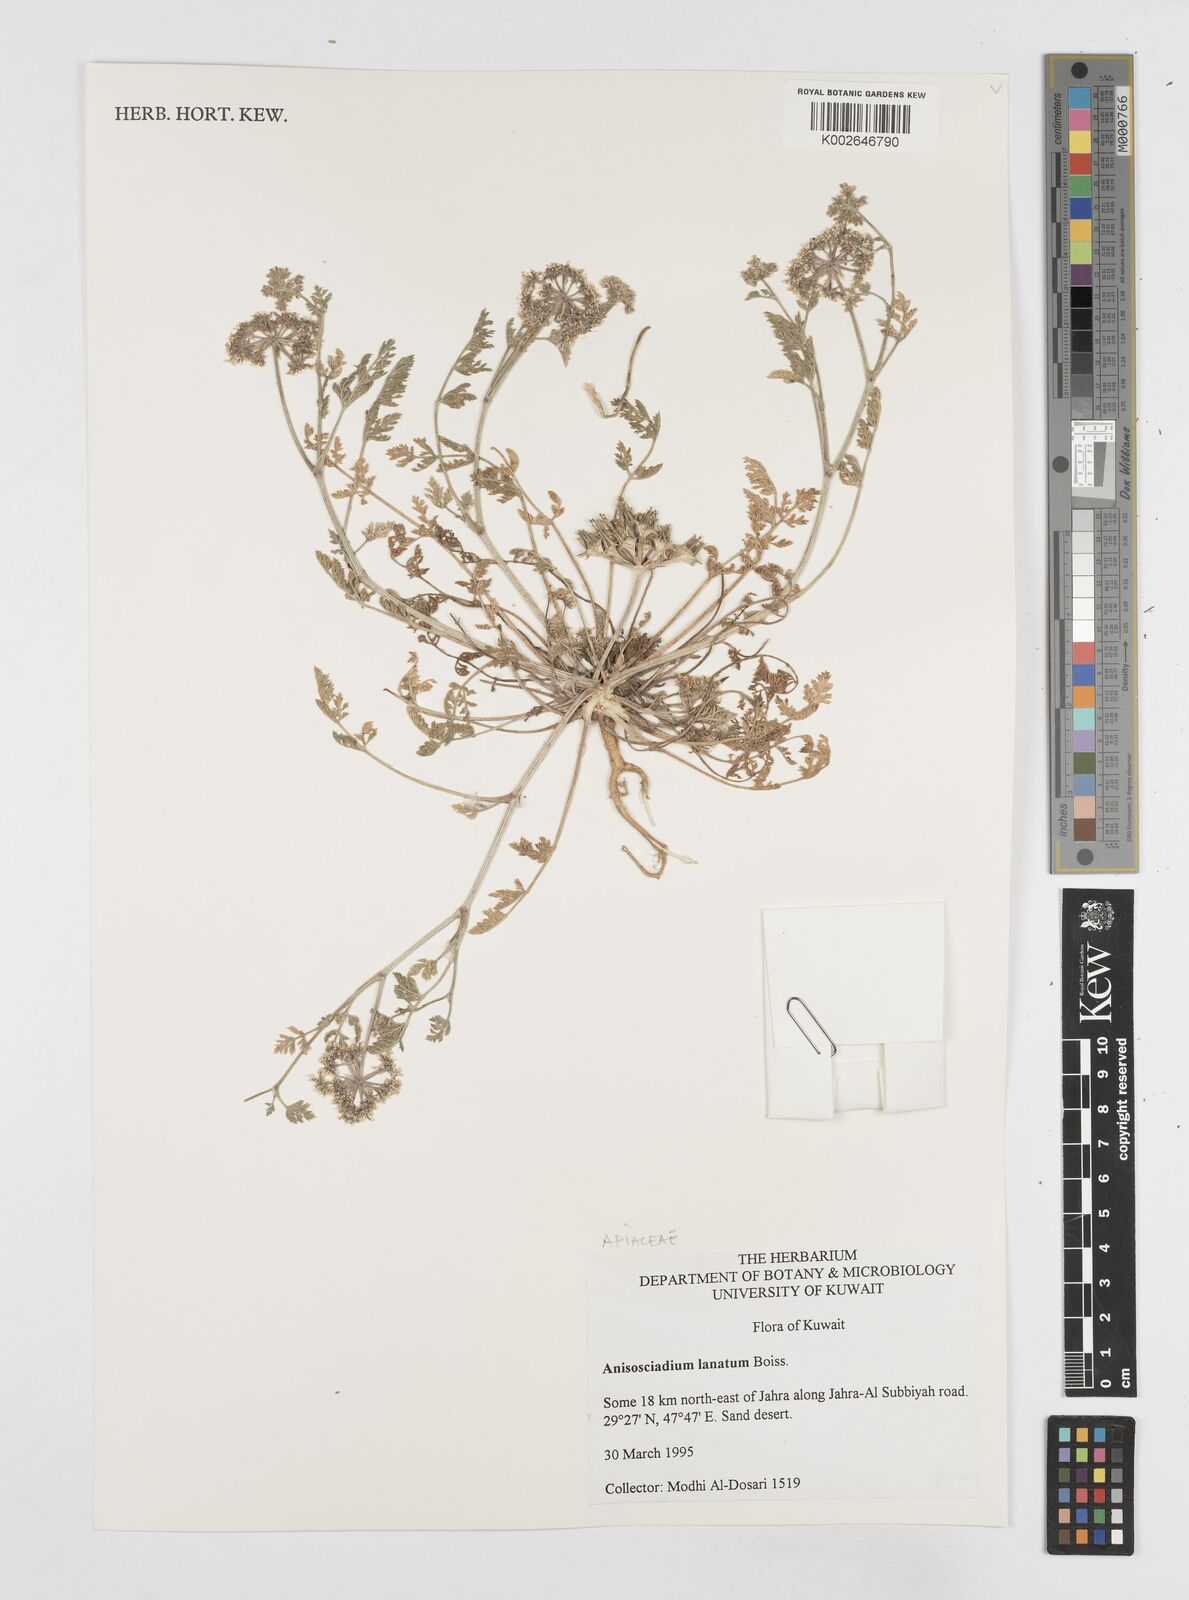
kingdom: Plantae
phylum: Tracheophyta
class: Magnoliopsida
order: Apiales
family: Apiaceae
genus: Anisosciadium
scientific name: Anisosciadium lanatum
